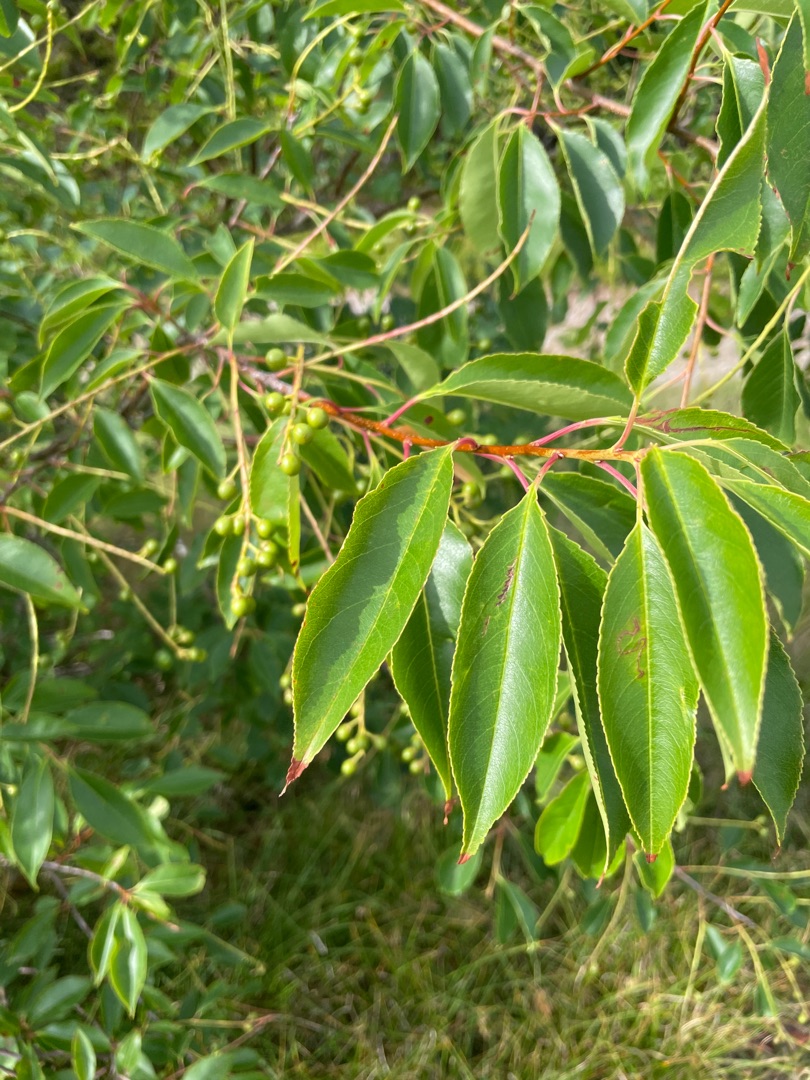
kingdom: Plantae
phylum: Tracheophyta
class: Magnoliopsida
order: Rosales
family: Rosaceae
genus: Prunus
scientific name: Prunus serotina
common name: Glansbladet hæg
